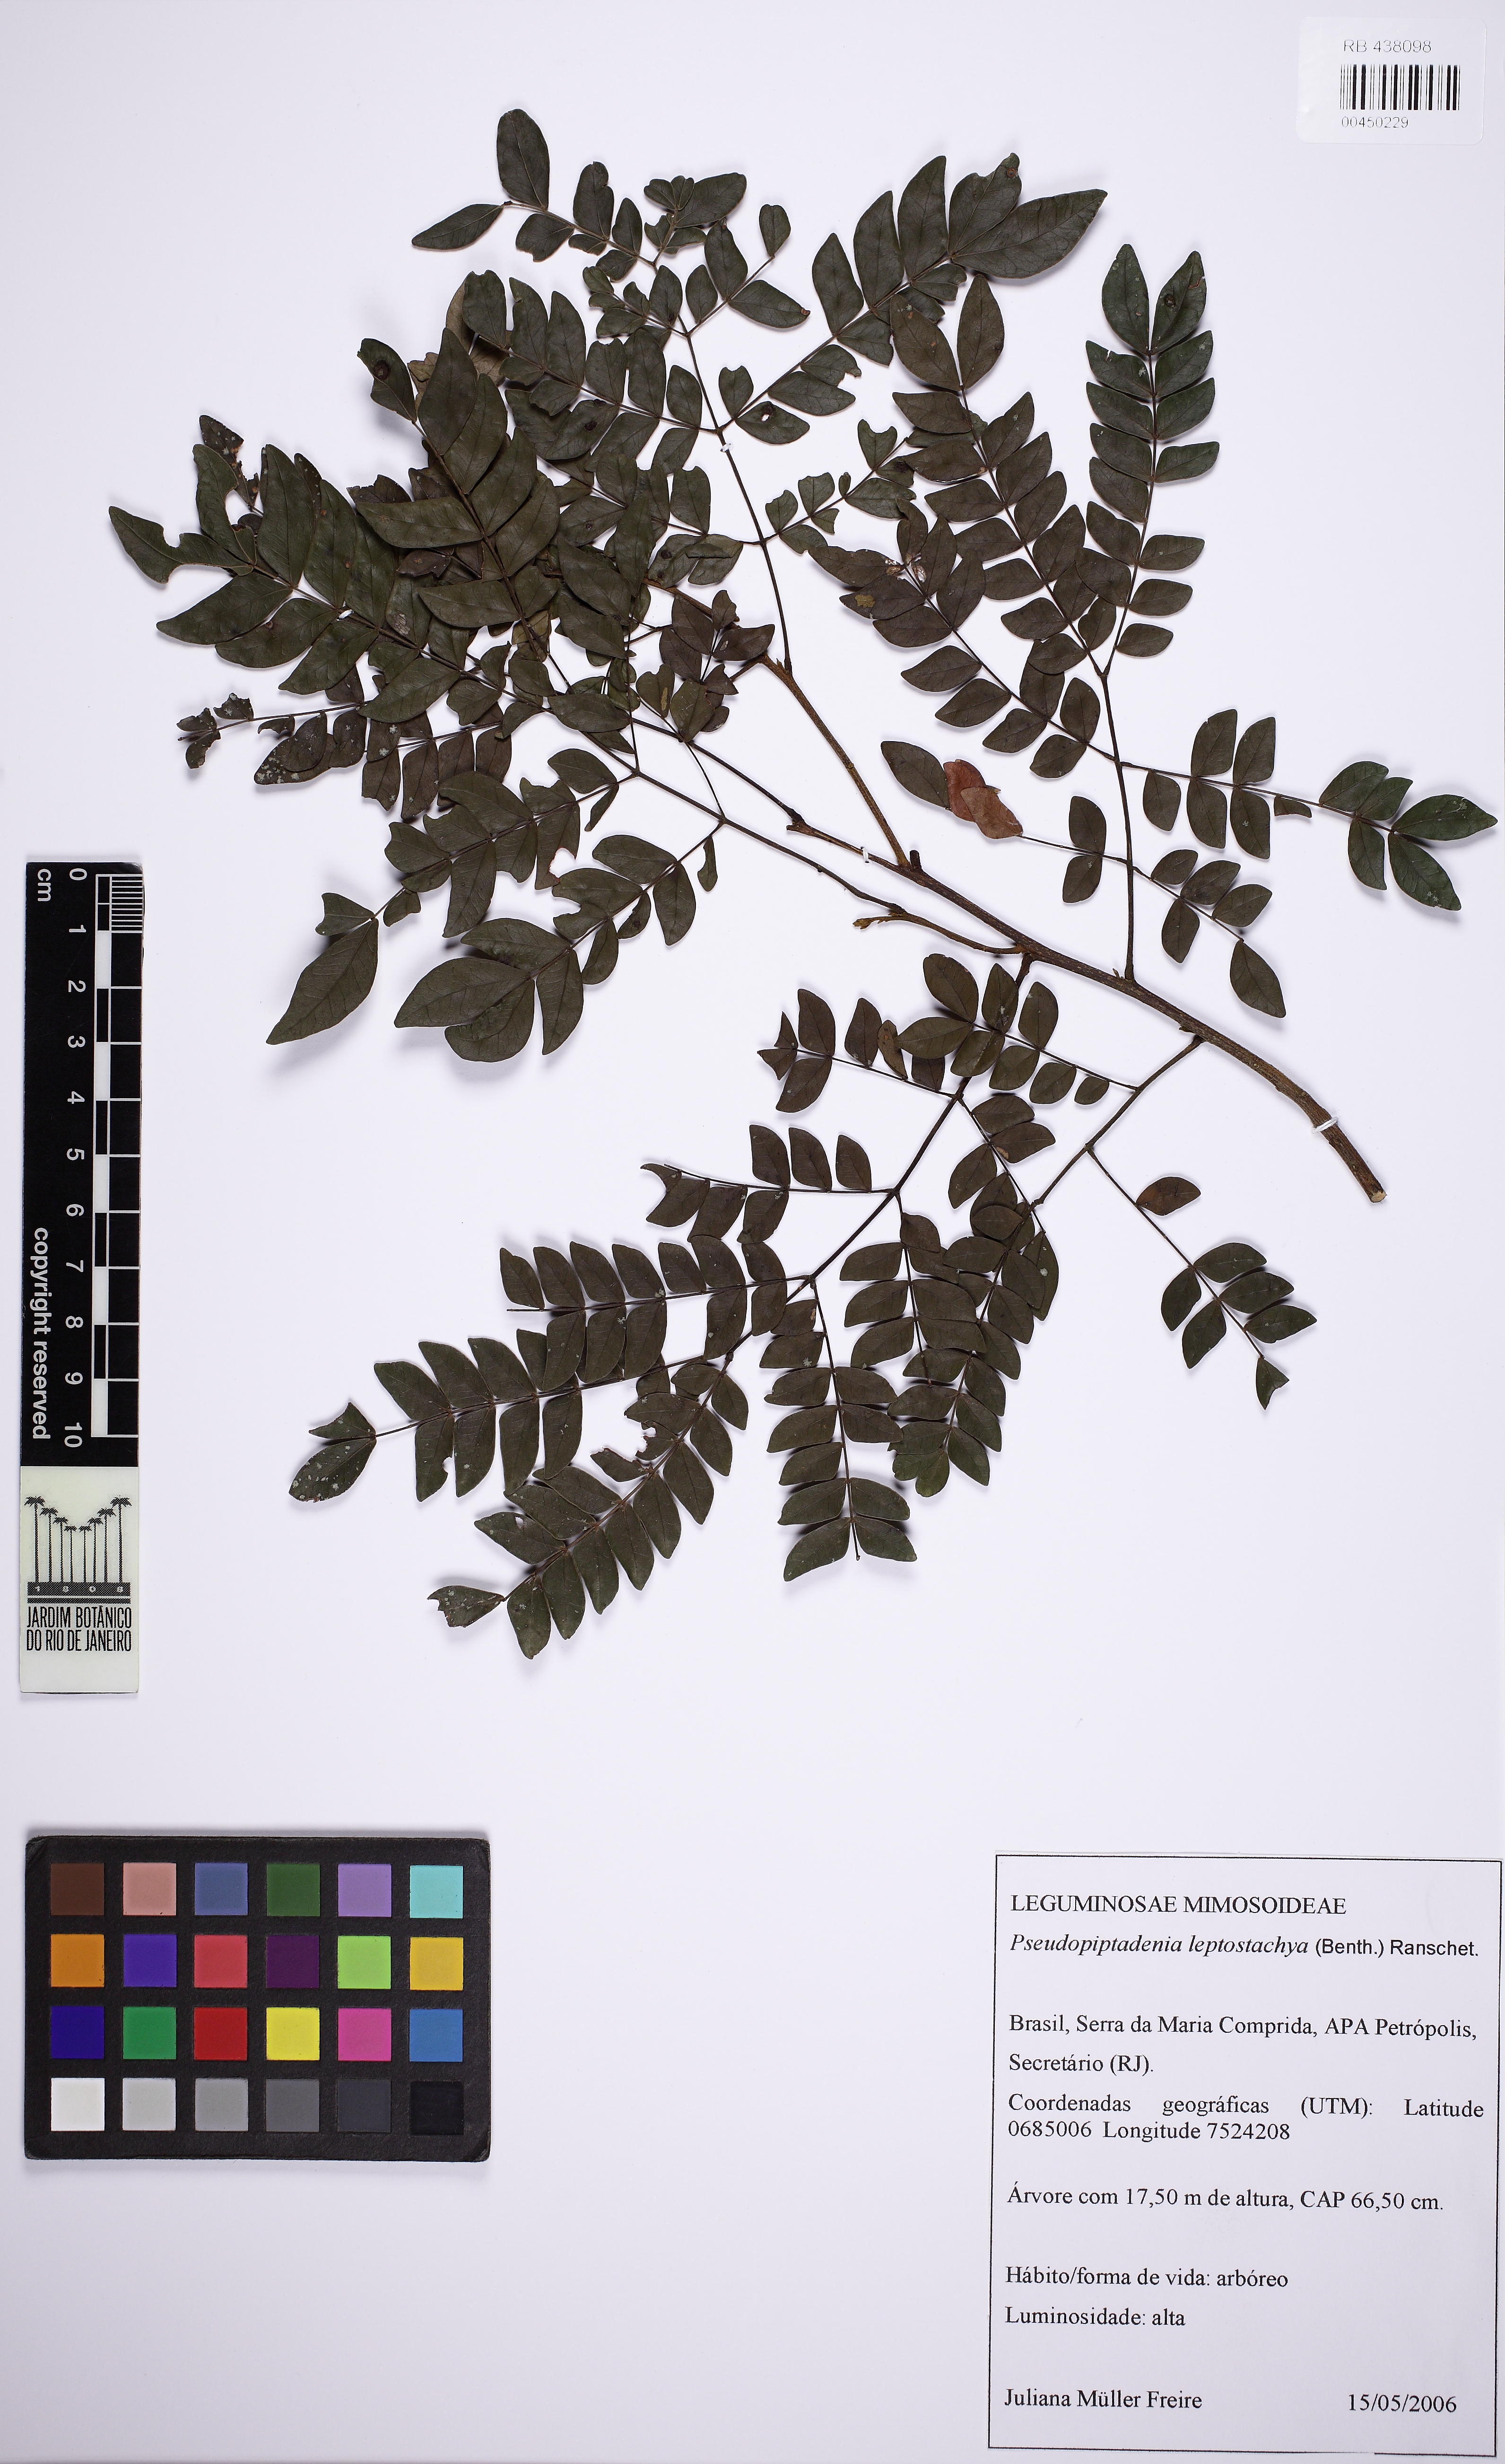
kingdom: Plantae
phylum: Tracheophyta
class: Magnoliopsida
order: Fabales
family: Fabaceae
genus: Pseudopiptadenia
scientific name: Pseudopiptadenia leptostachya
